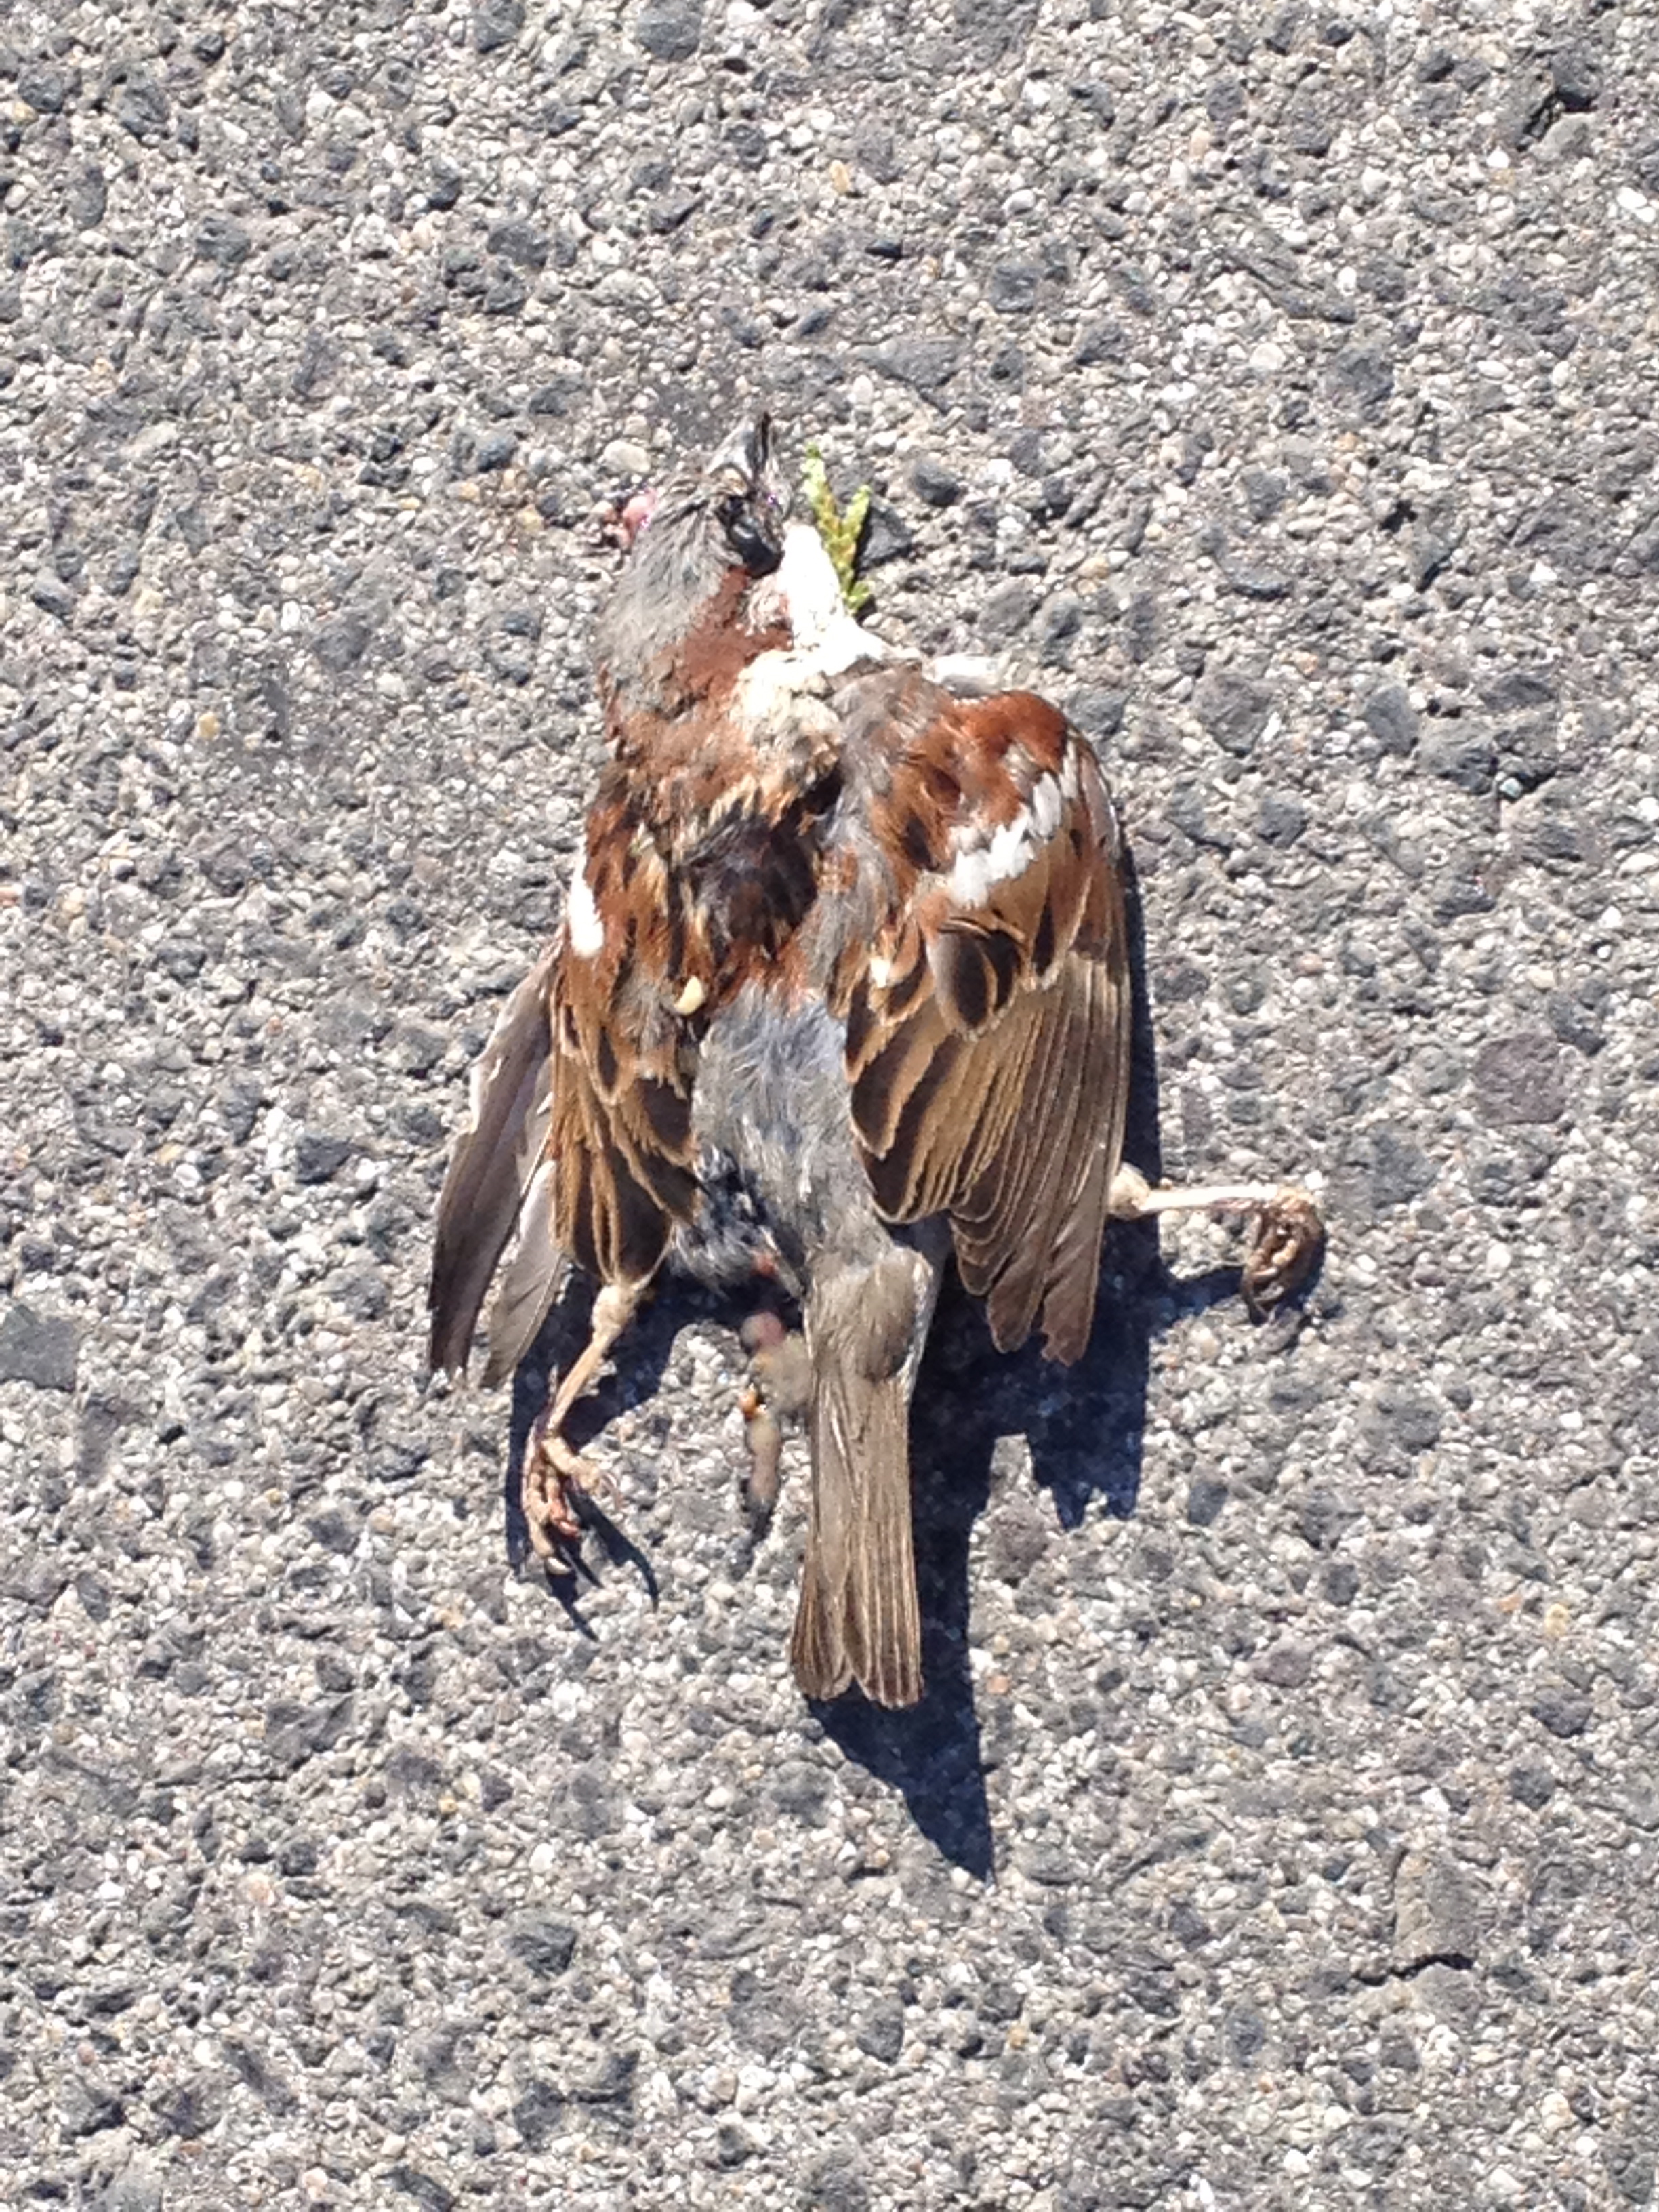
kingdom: Animalia
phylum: Chordata
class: Aves
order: Passeriformes
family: Passeridae
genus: Passer
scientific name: Passer domesticus
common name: House sparrow
